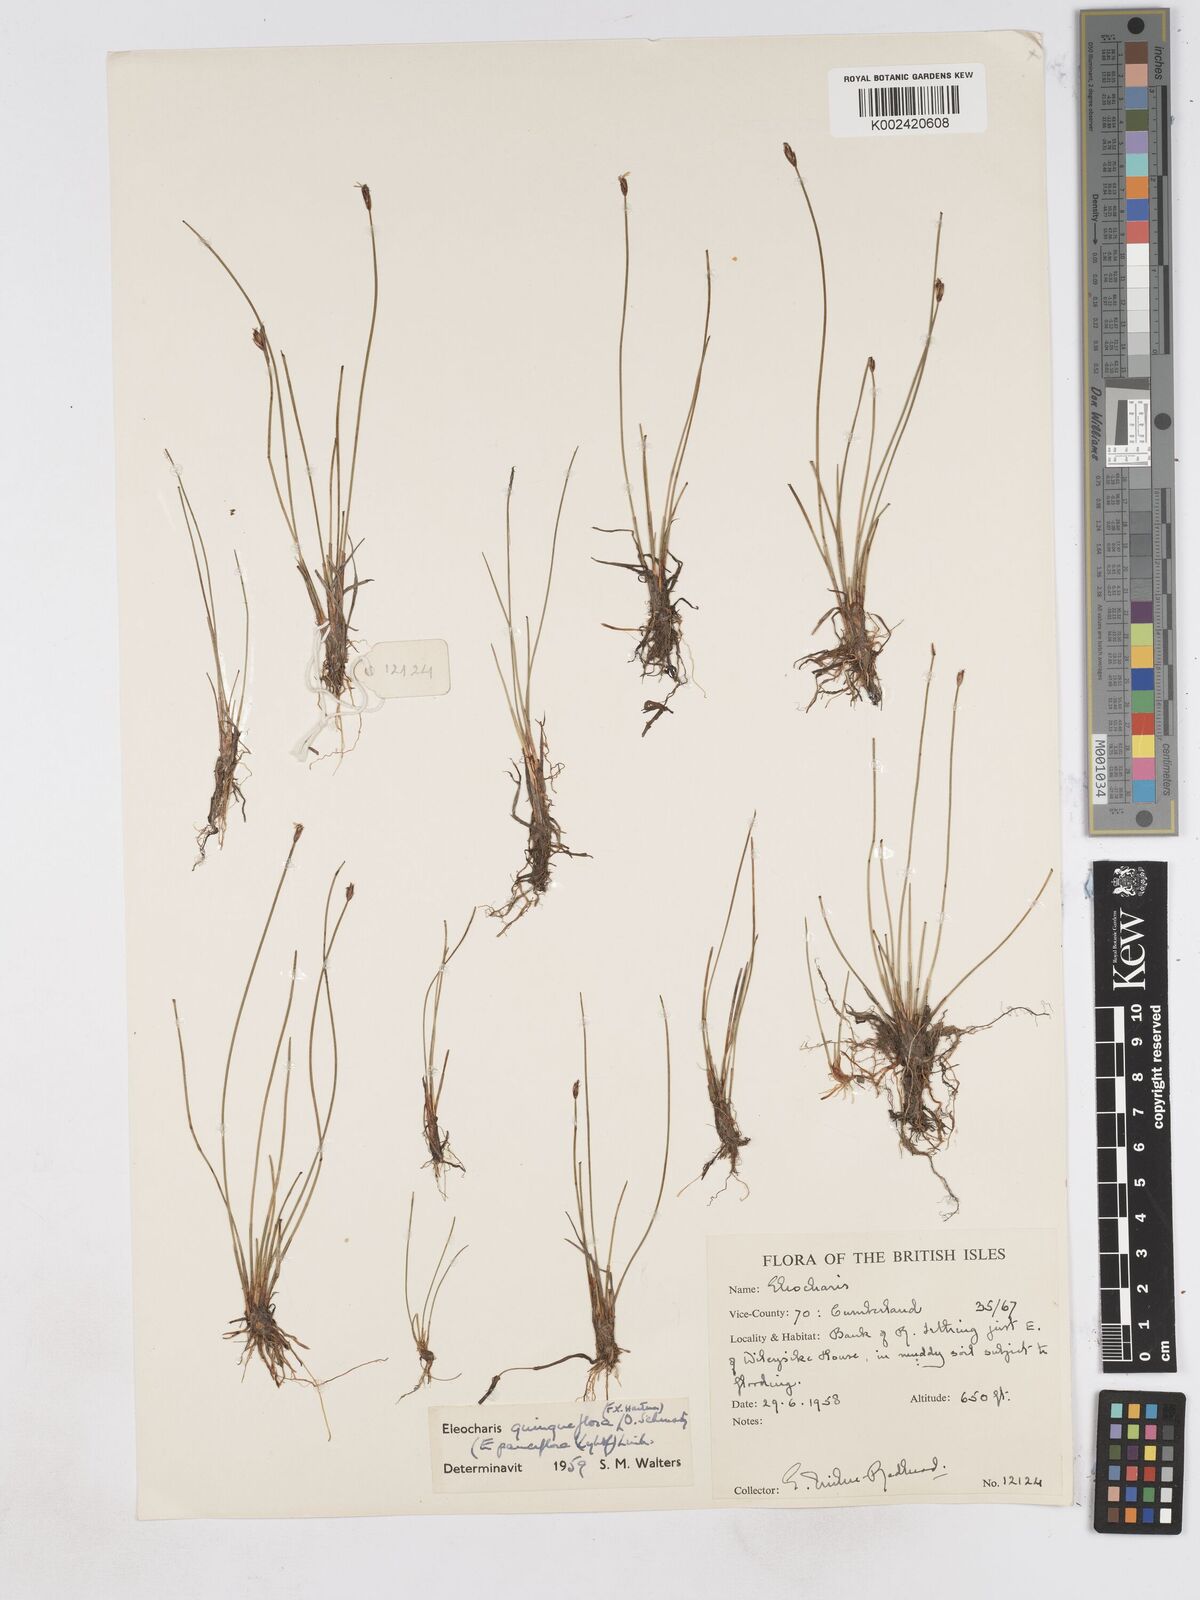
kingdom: Plantae
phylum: Tracheophyta
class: Liliopsida
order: Poales
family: Cyperaceae
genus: Eleocharis
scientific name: Eleocharis quinqueflora
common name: Few-flowered spike-rush
